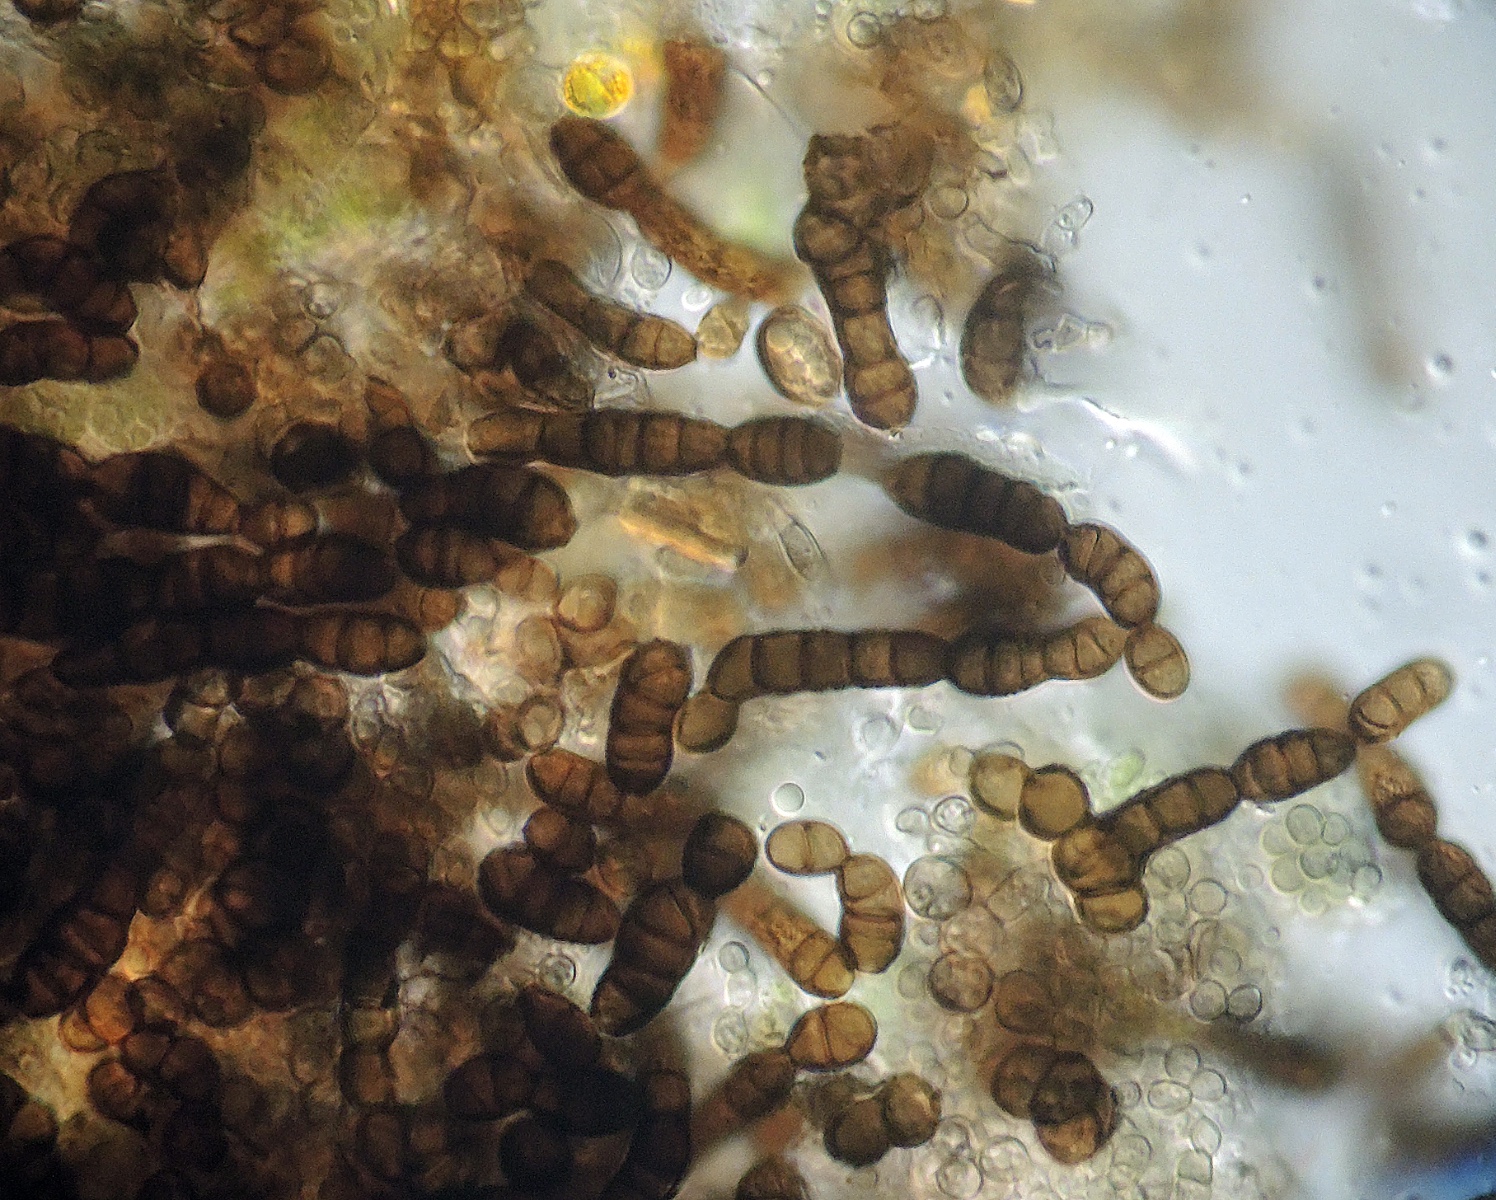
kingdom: Fungi
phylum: Ascomycota
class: Leotiomycetes
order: Helotiales
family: Mollisiaceae
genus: Trimmatostroma
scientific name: Trimmatostroma salicis
